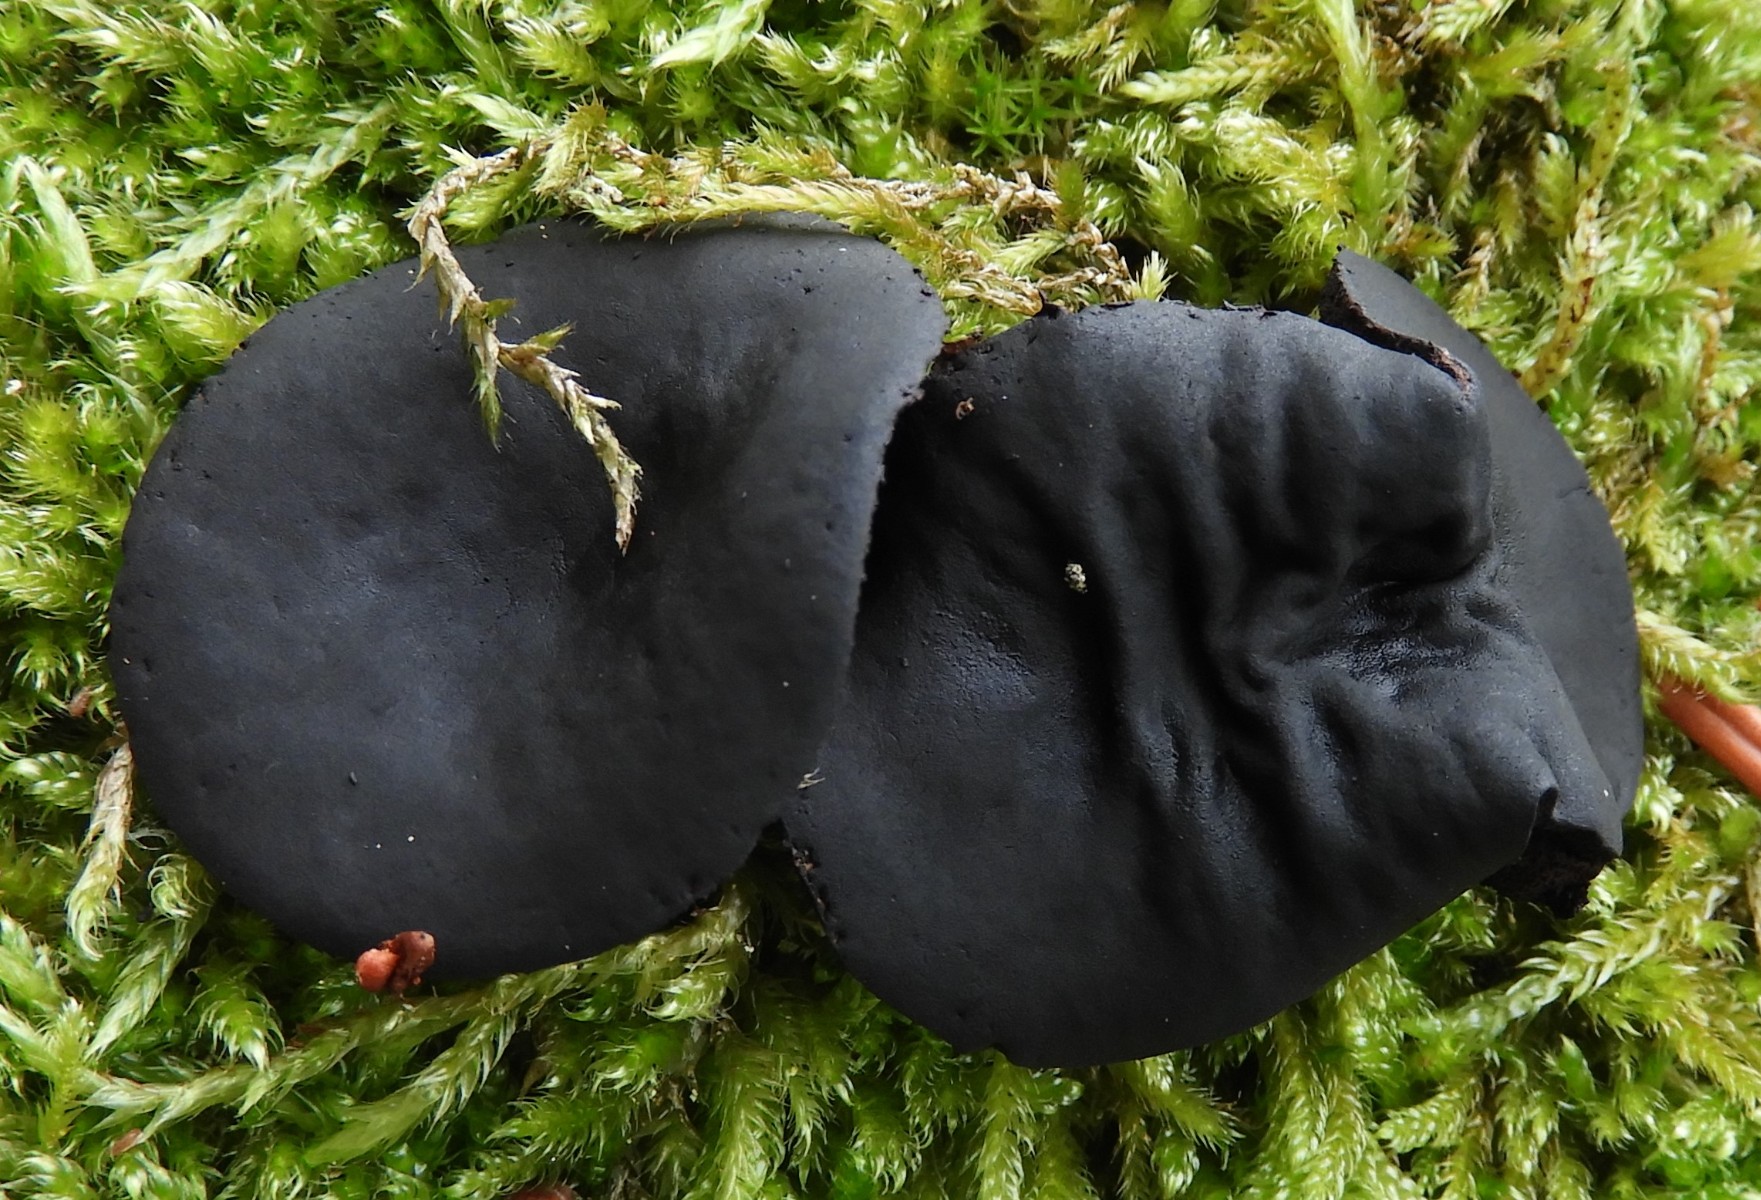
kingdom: Fungi
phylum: Ascomycota
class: Leotiomycetes
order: Phacidiales
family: Phacidiaceae
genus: Bulgaria
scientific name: Bulgaria inquinans
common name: afsmittende topsvamp
